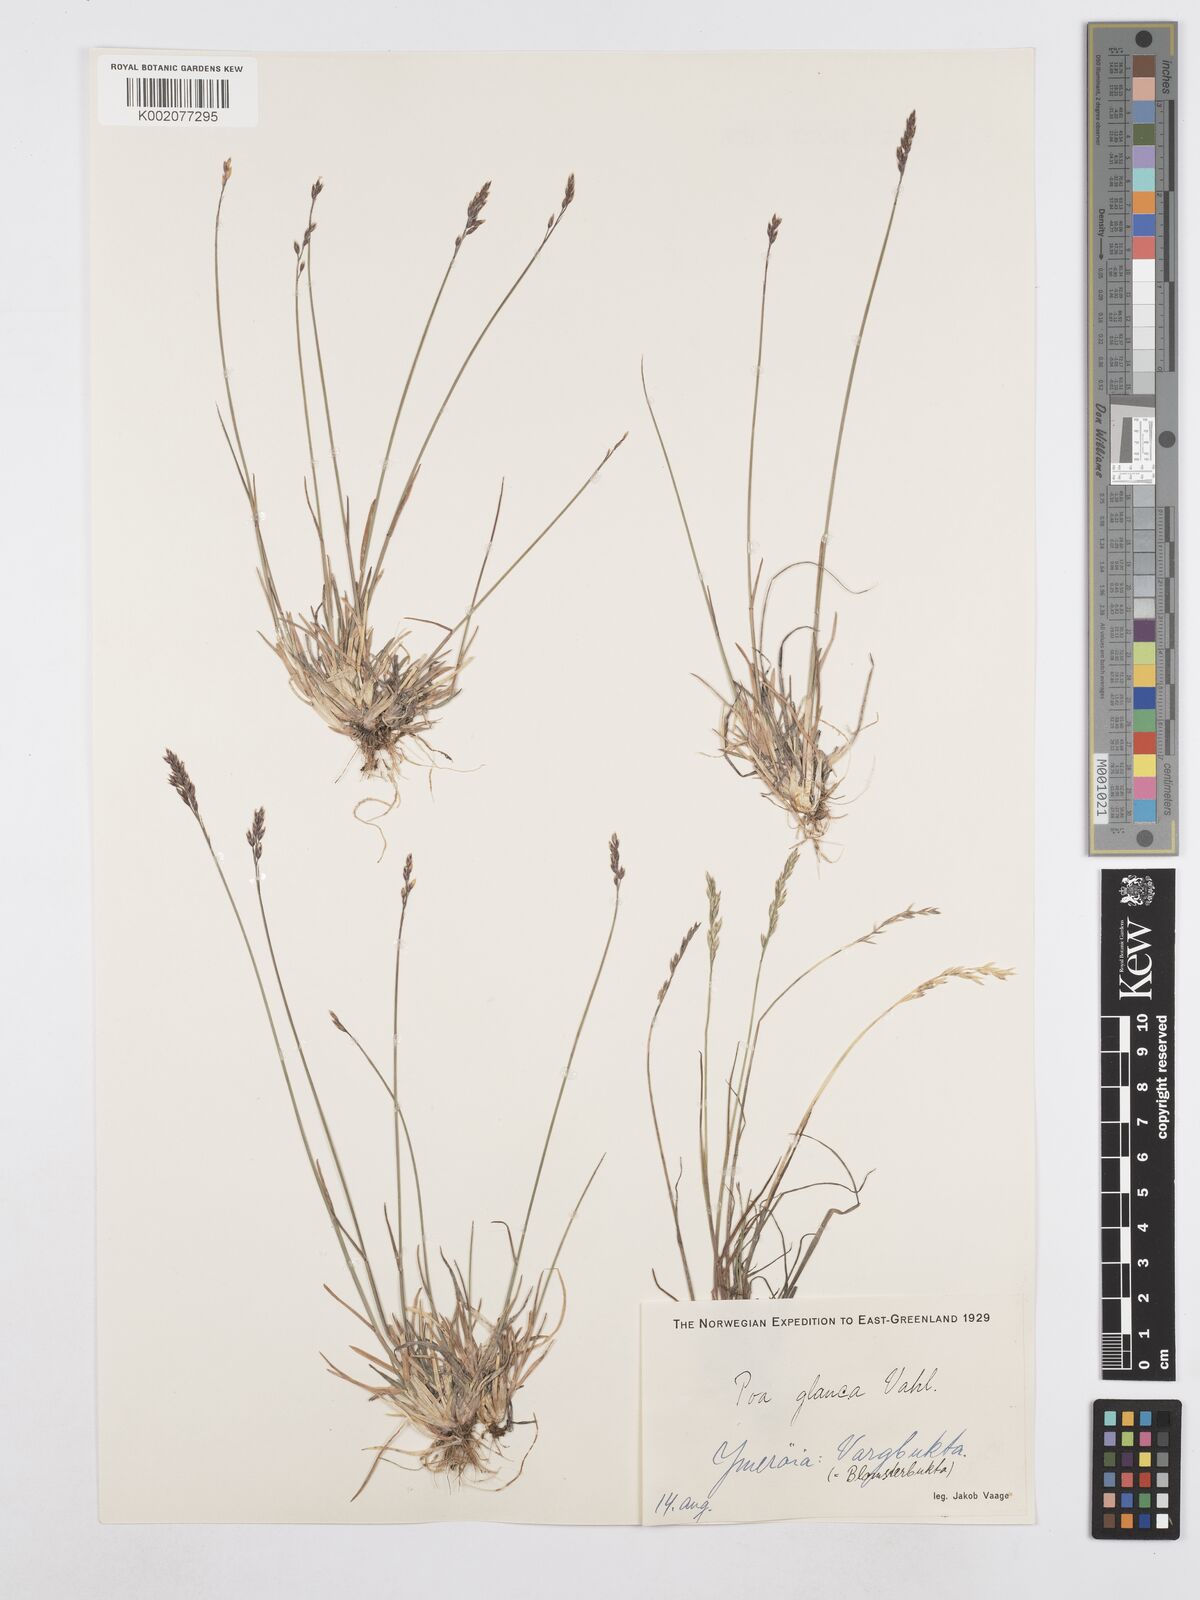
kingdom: Plantae
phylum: Tracheophyta
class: Liliopsida
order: Poales
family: Poaceae
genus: Poa
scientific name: Poa glauca
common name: Glaucous bluegrass
